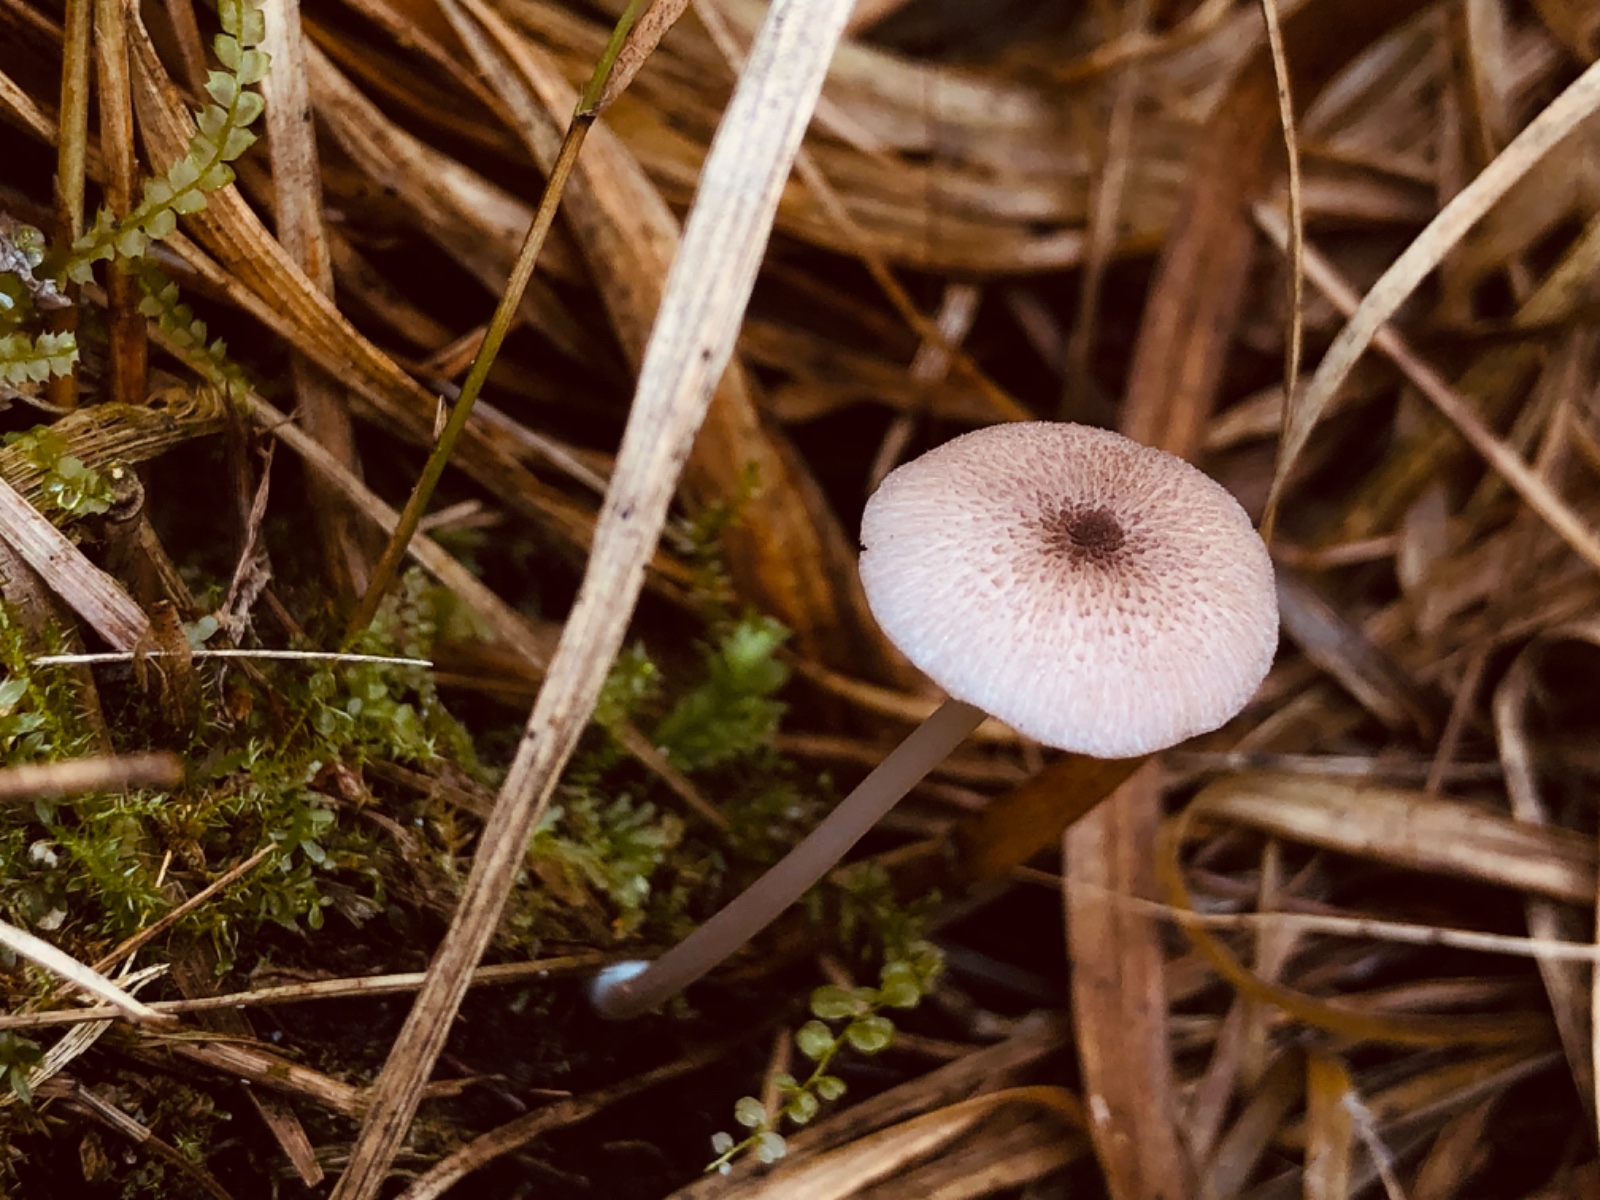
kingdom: Fungi
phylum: Basidiomycota
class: Agaricomycetes
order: Agaricales
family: Entolomataceae
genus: Entoloma
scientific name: Entoloma
